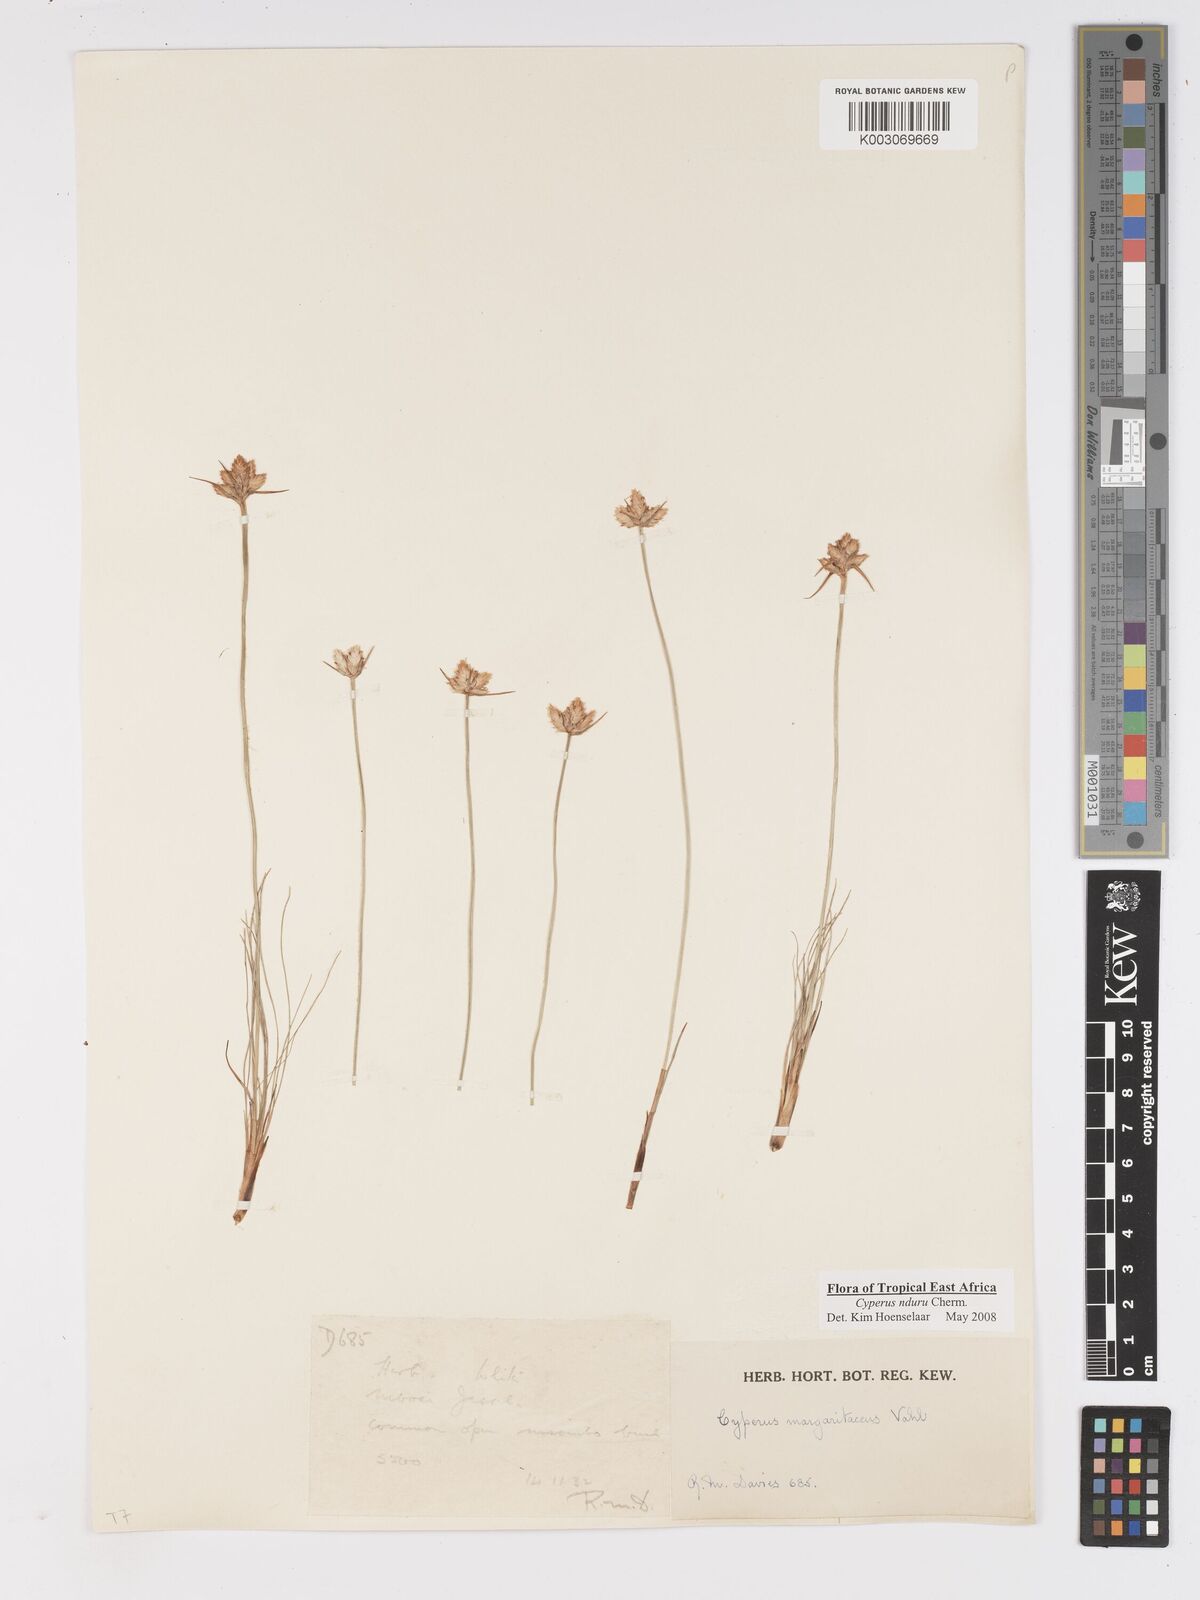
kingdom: Plantae
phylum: Tracheophyta
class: Liliopsida
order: Poales
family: Cyperaceae
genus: Cyperus
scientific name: Cyperus nduru
